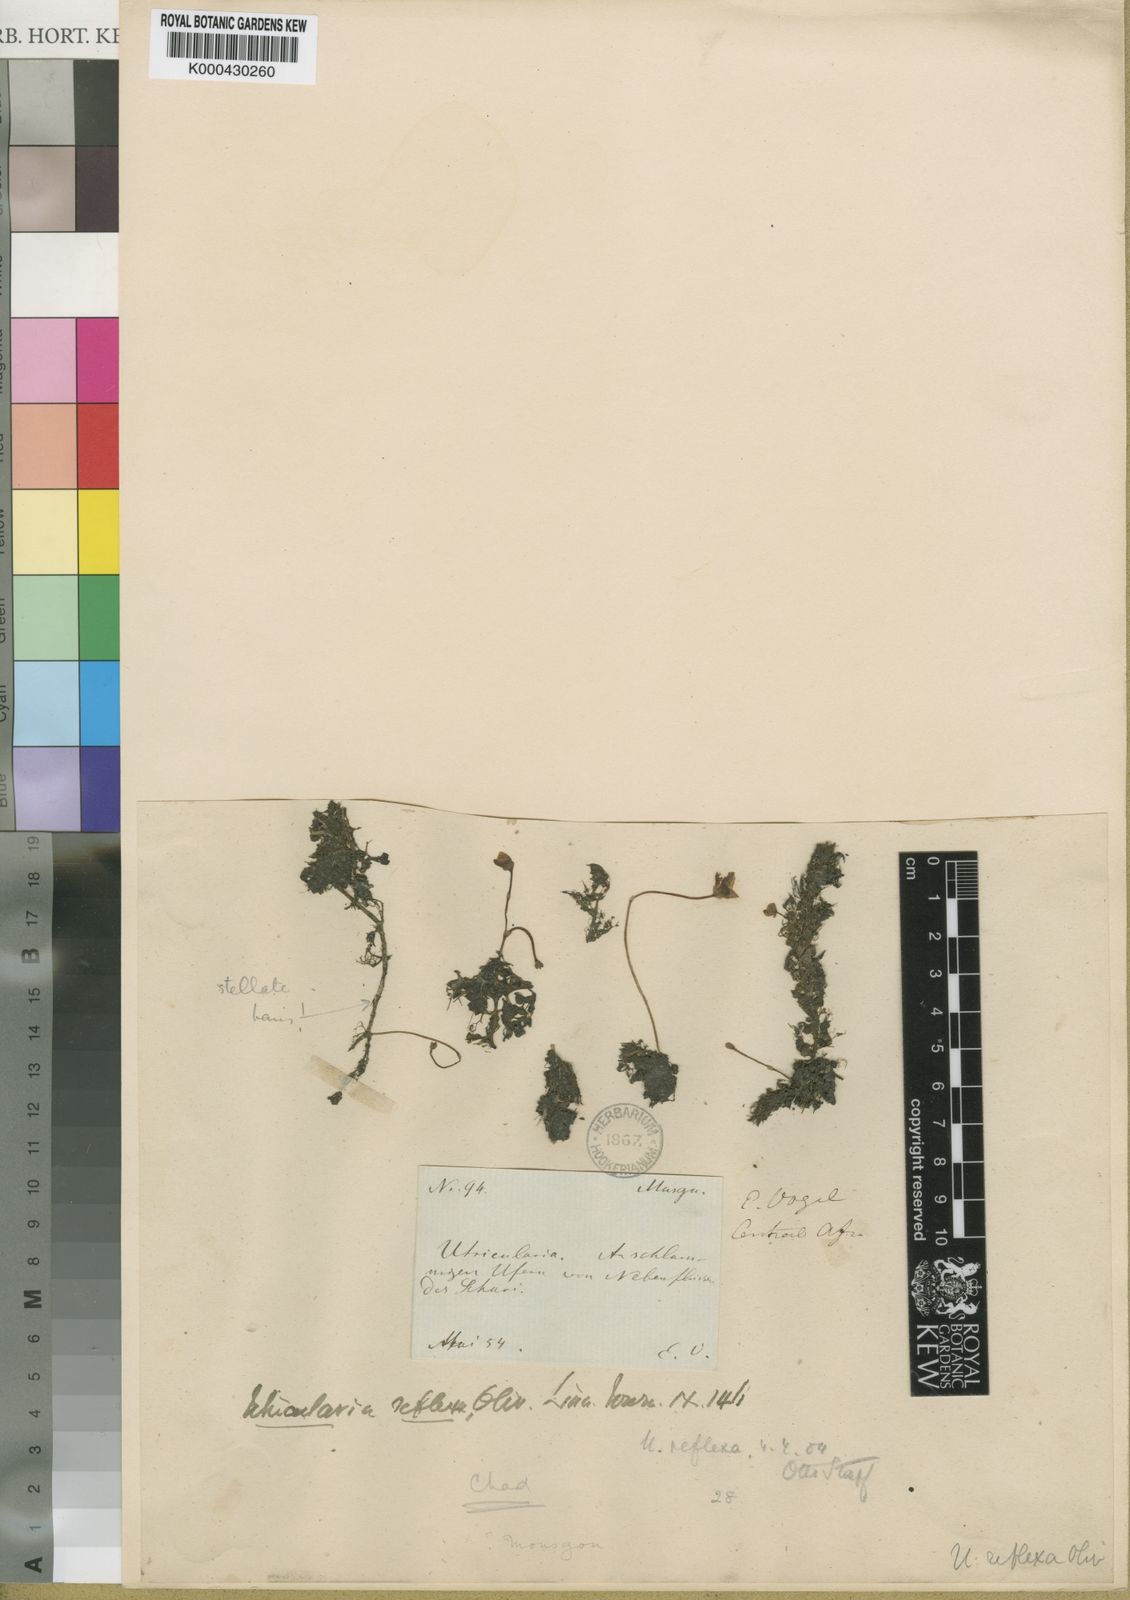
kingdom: Plantae
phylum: Tracheophyta
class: Magnoliopsida
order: Lamiales
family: Lentibulariaceae
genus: Utricularia
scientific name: Utricularia reflexa
